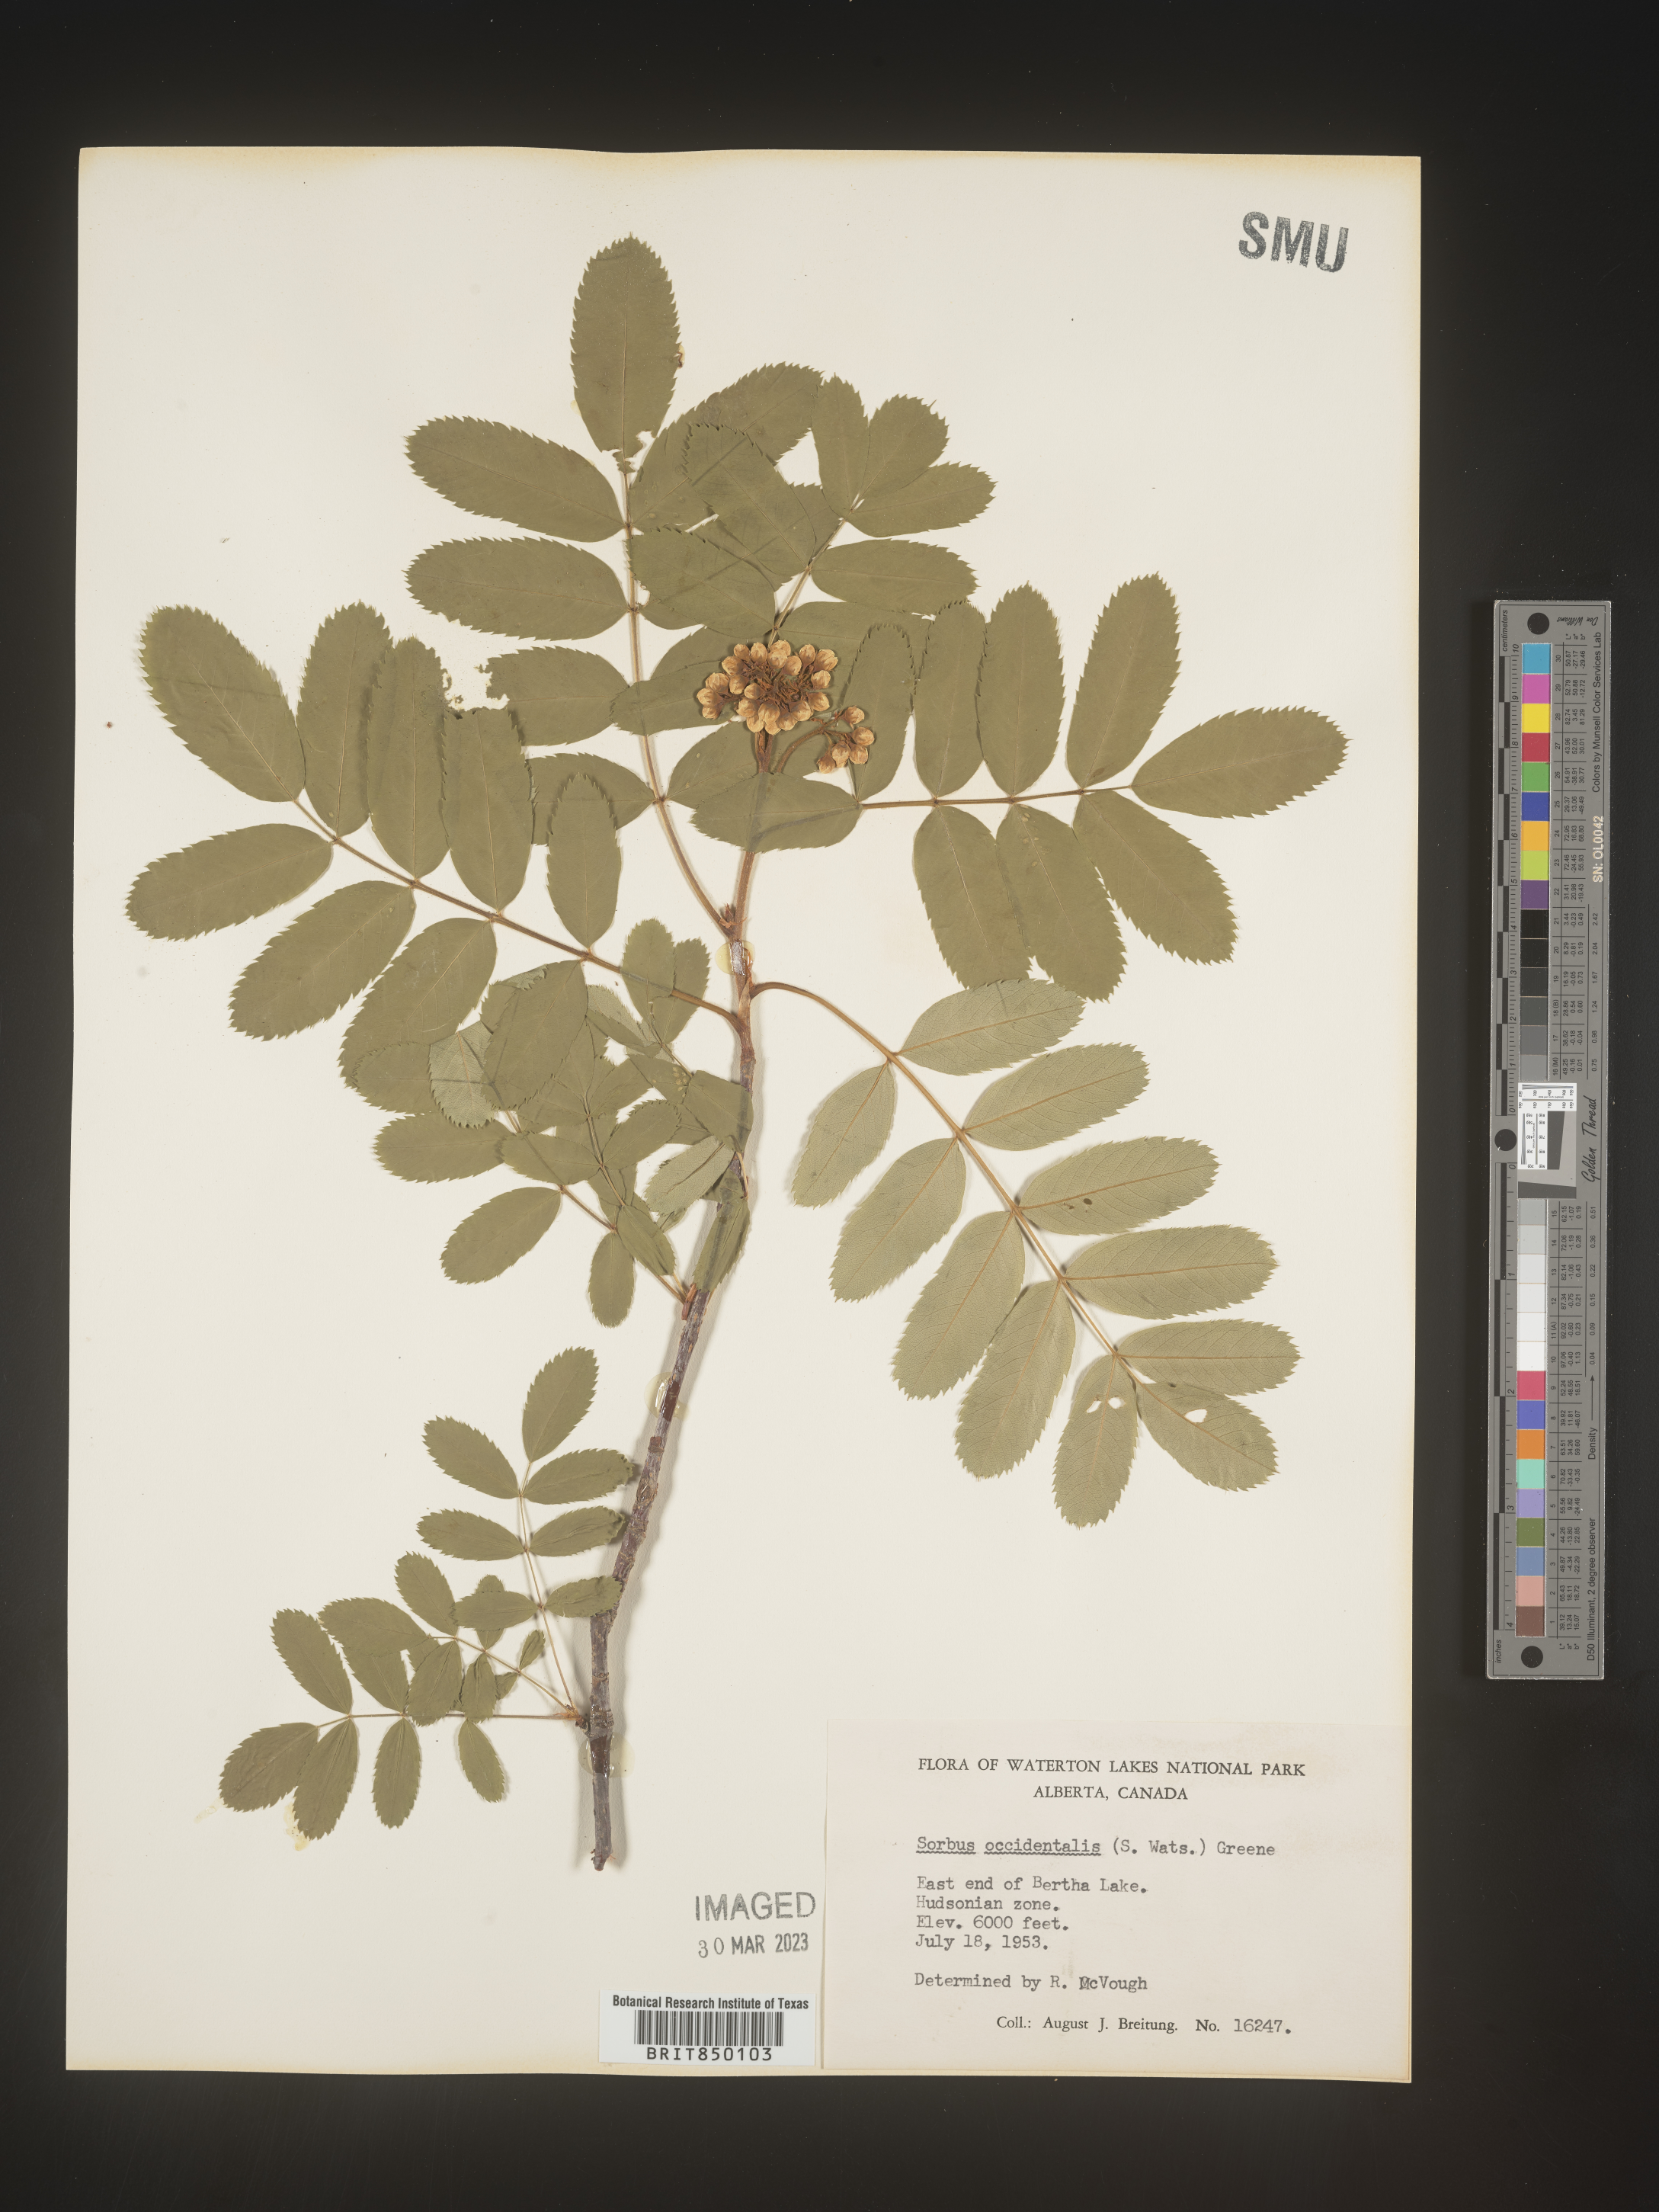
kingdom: Plantae
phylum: Tracheophyta
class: Magnoliopsida
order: Rosales
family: Rosaceae
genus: Sorbus
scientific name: Sorbus
